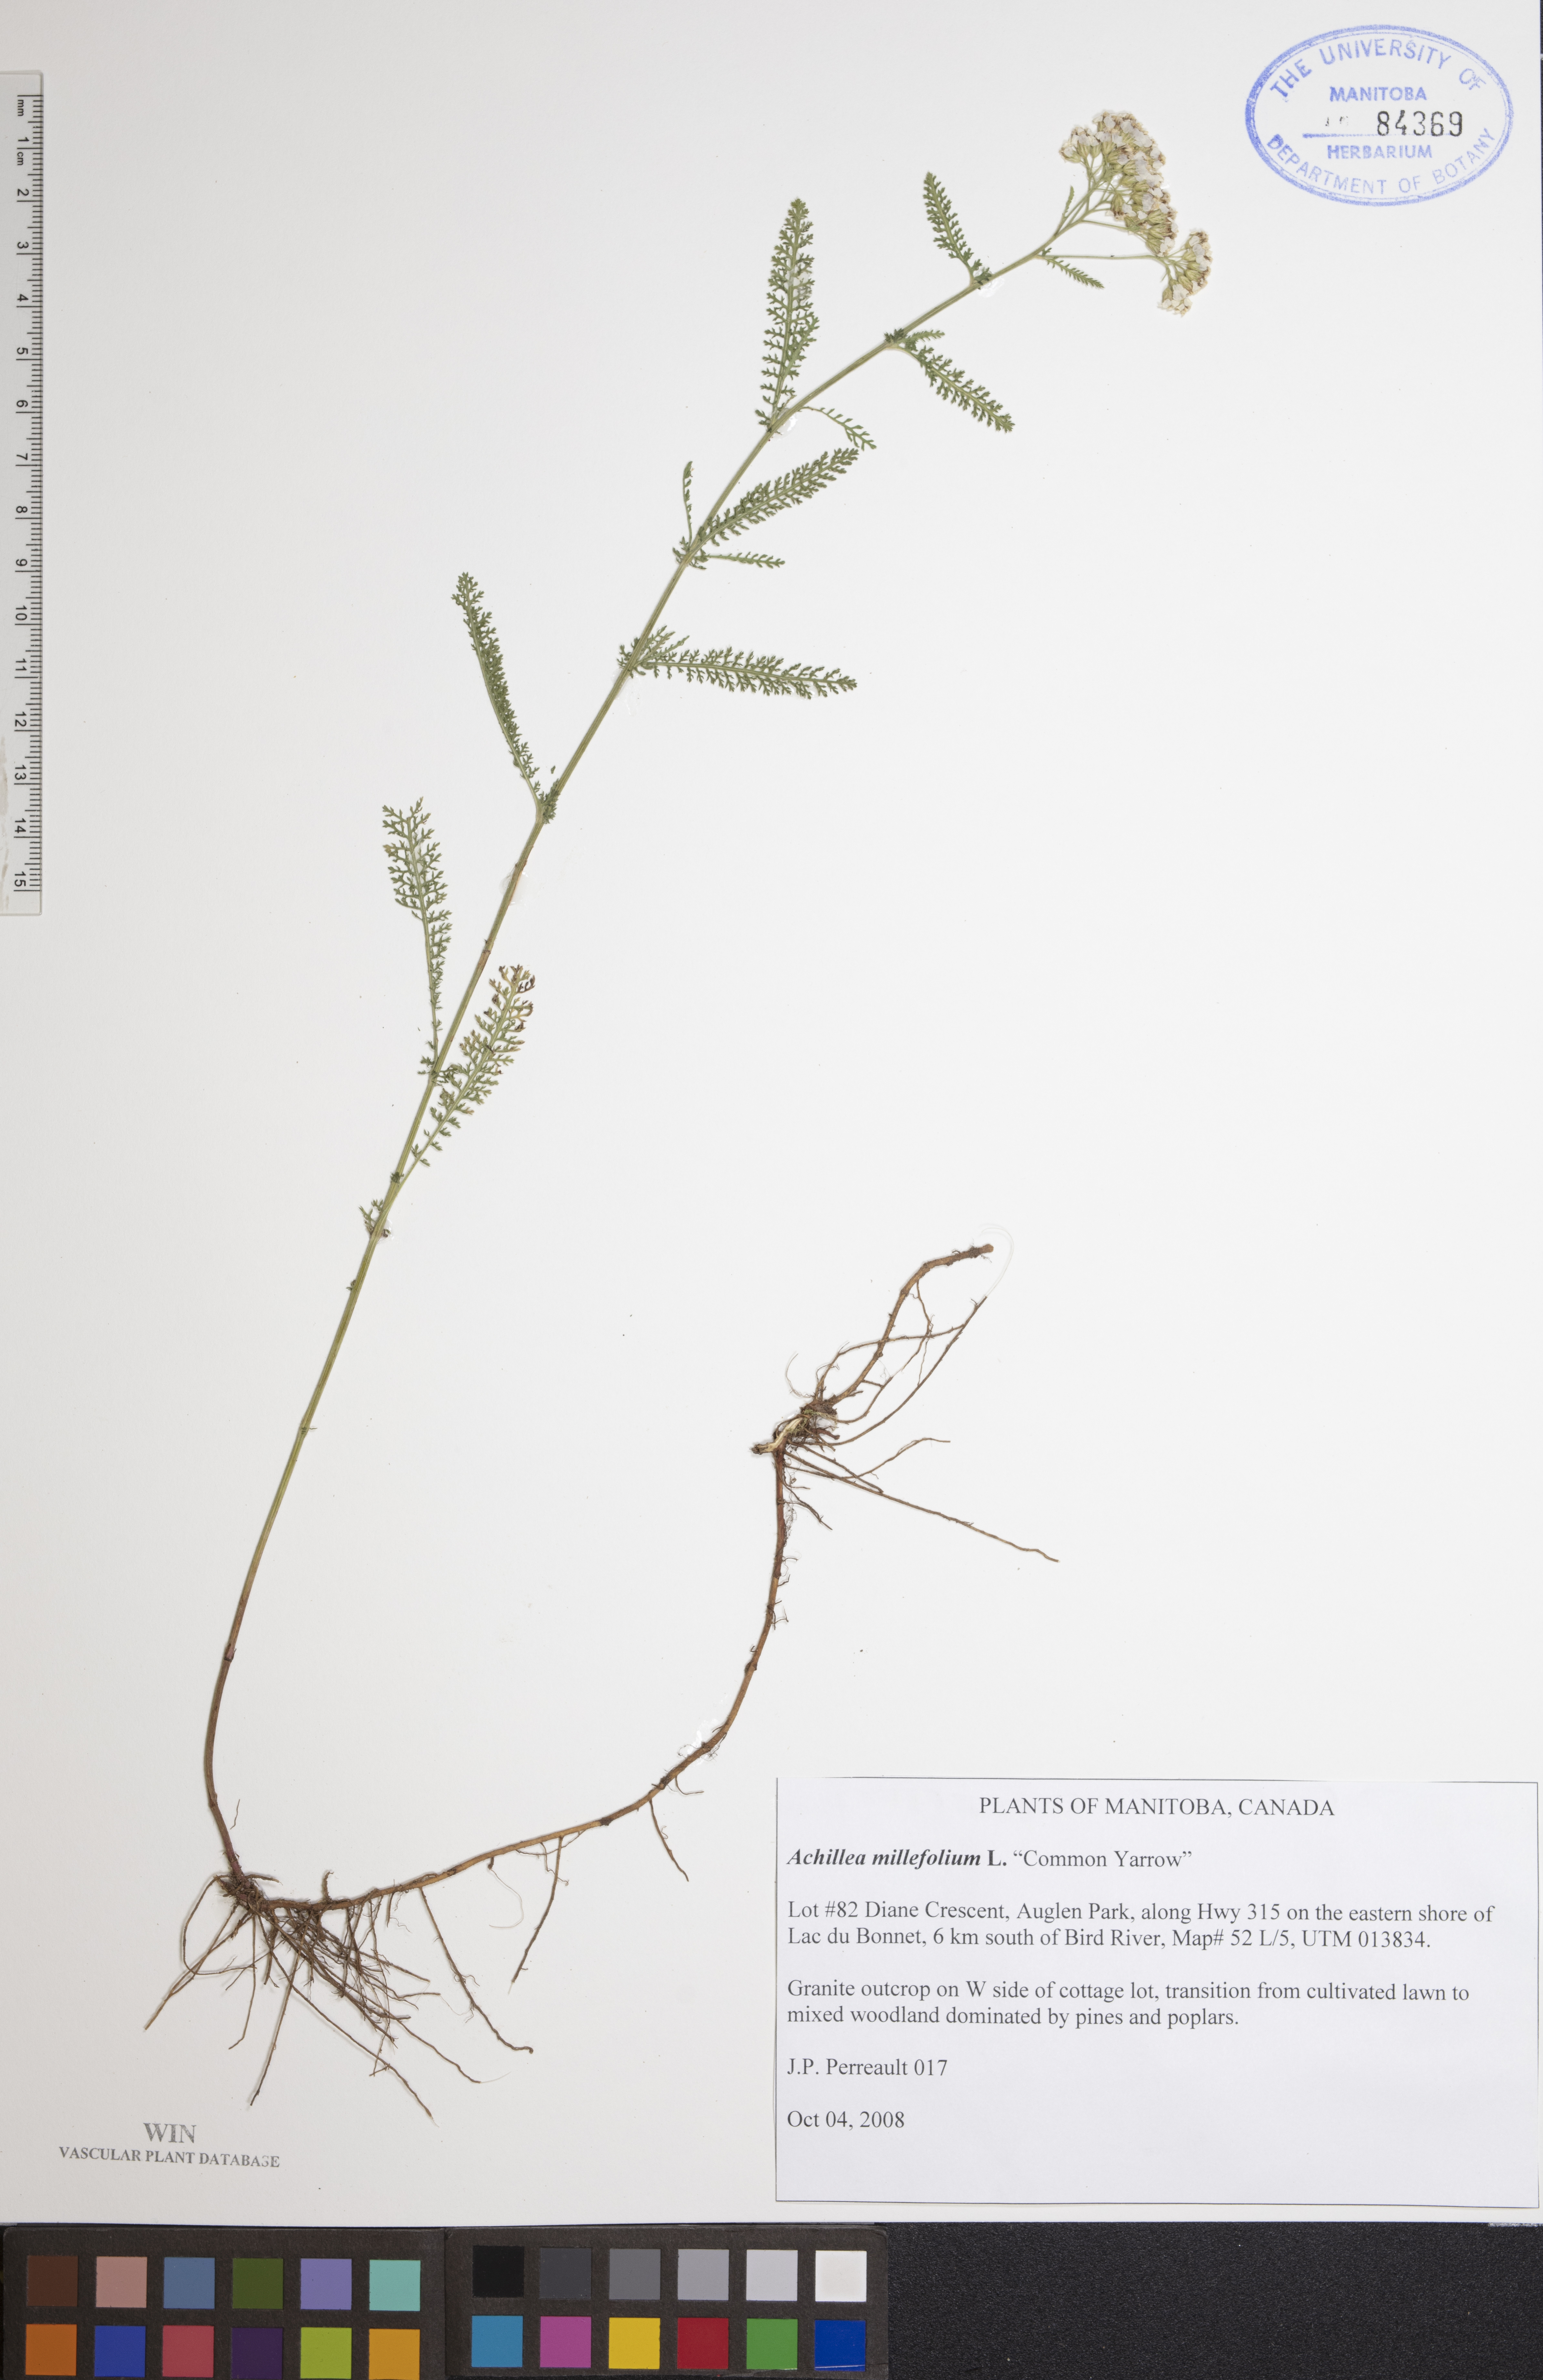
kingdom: Plantae
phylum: Tracheophyta
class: Magnoliopsida
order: Asterales
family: Asteraceae
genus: Achillea
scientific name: Achillea millefolium
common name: Yarrow
